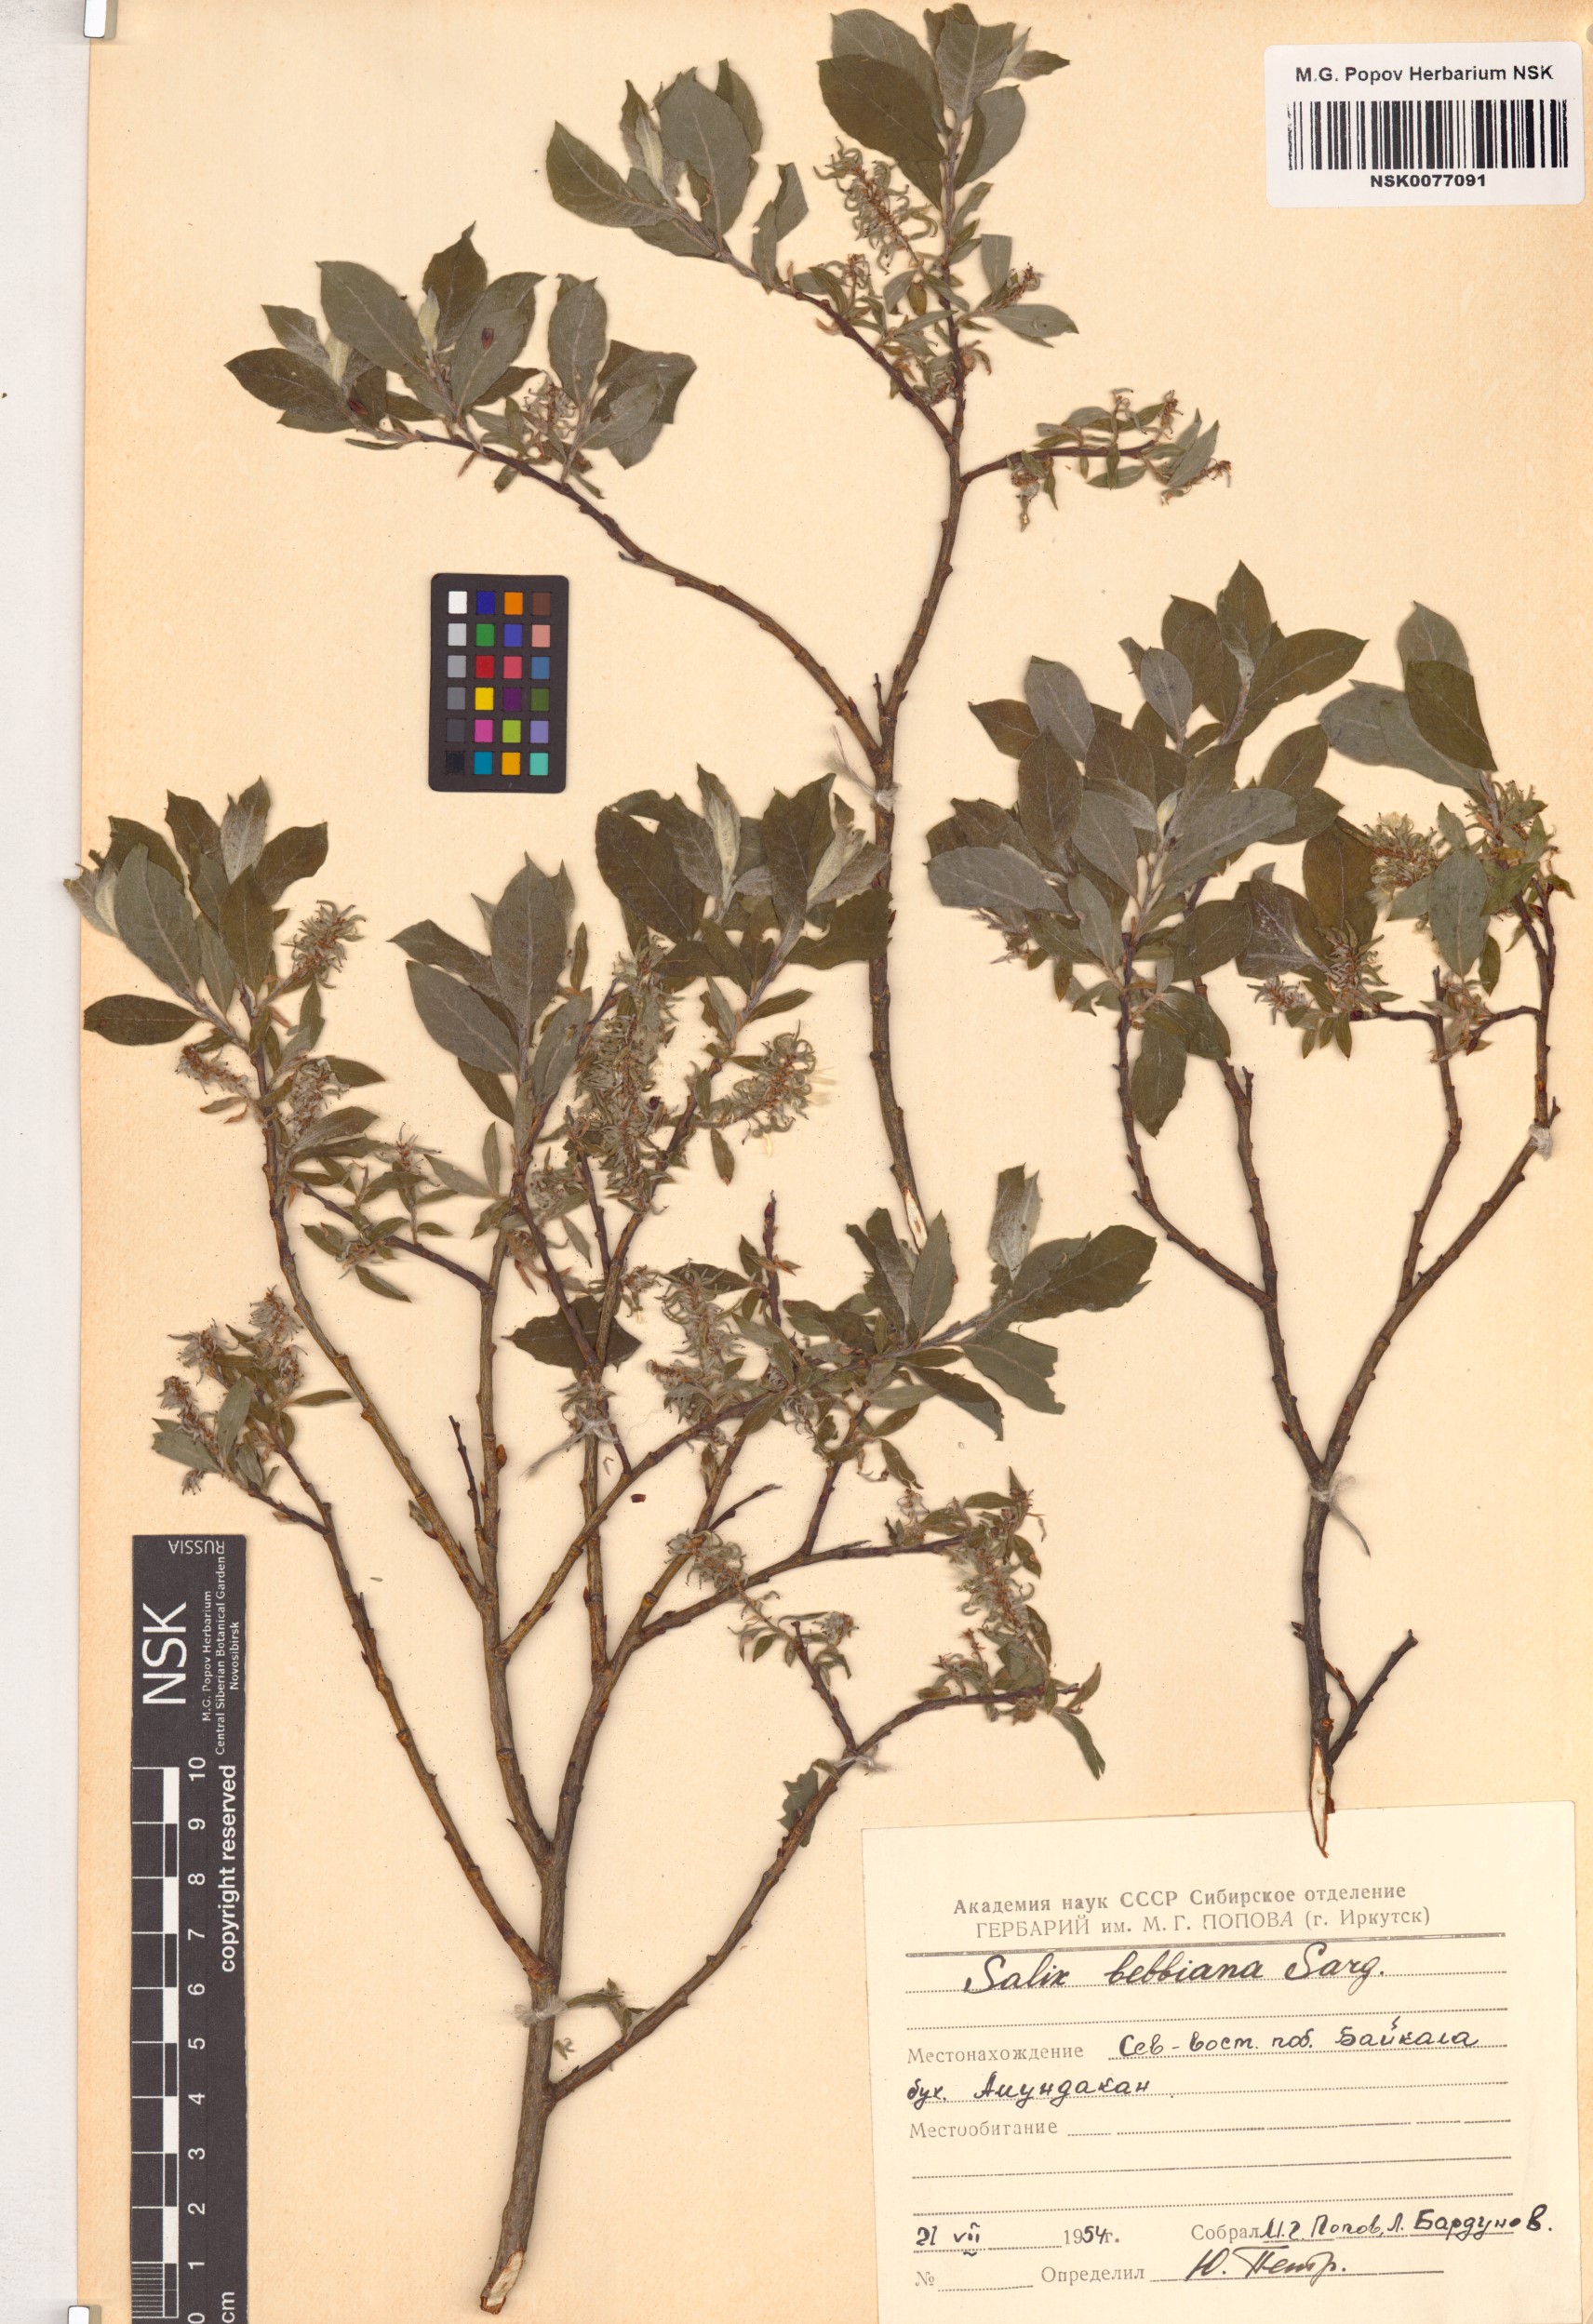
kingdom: Plantae
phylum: Tracheophyta
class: Magnoliopsida
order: Malpighiales
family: Salicaceae
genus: Salix
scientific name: Salix bebbiana
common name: Bebb's willow
